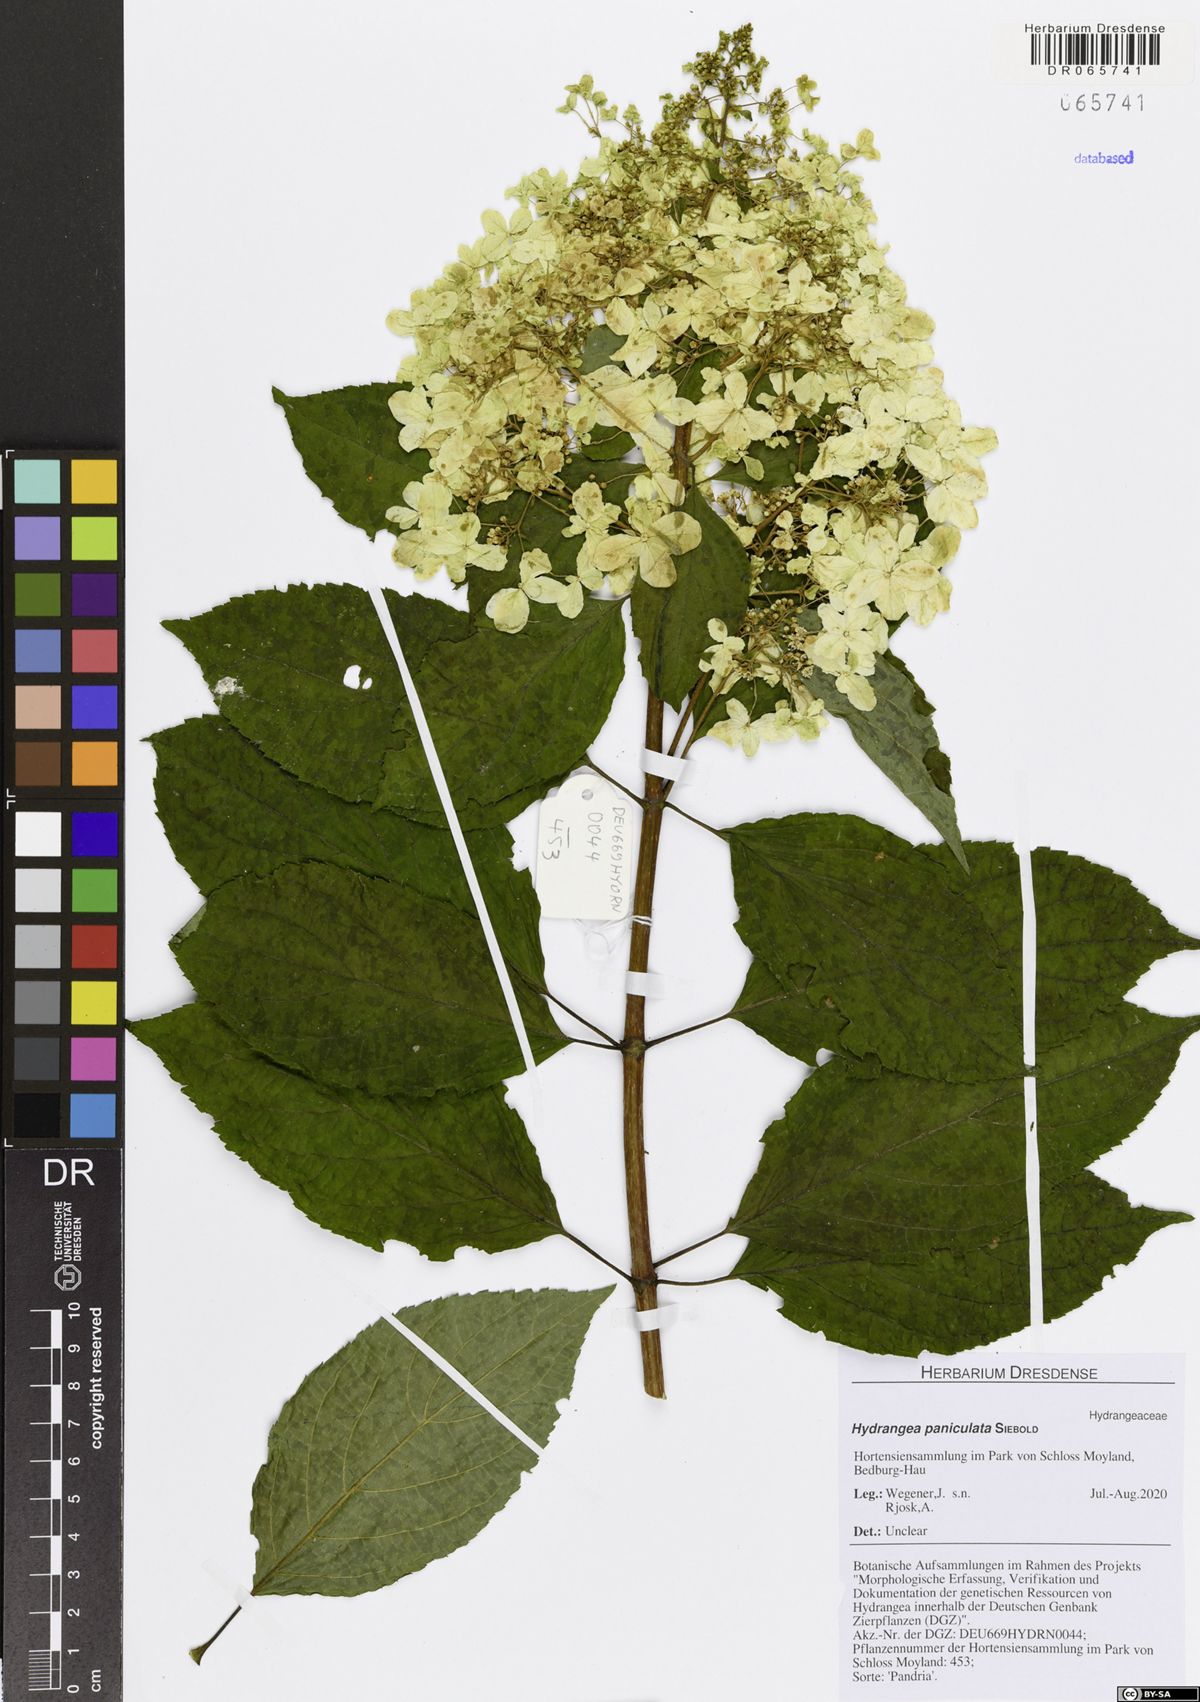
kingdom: Plantae
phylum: Tracheophyta
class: Magnoliopsida
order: Cornales
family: Hydrangeaceae
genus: Hydrangea
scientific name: Hydrangea paniculata
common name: Panicled hydrangea
